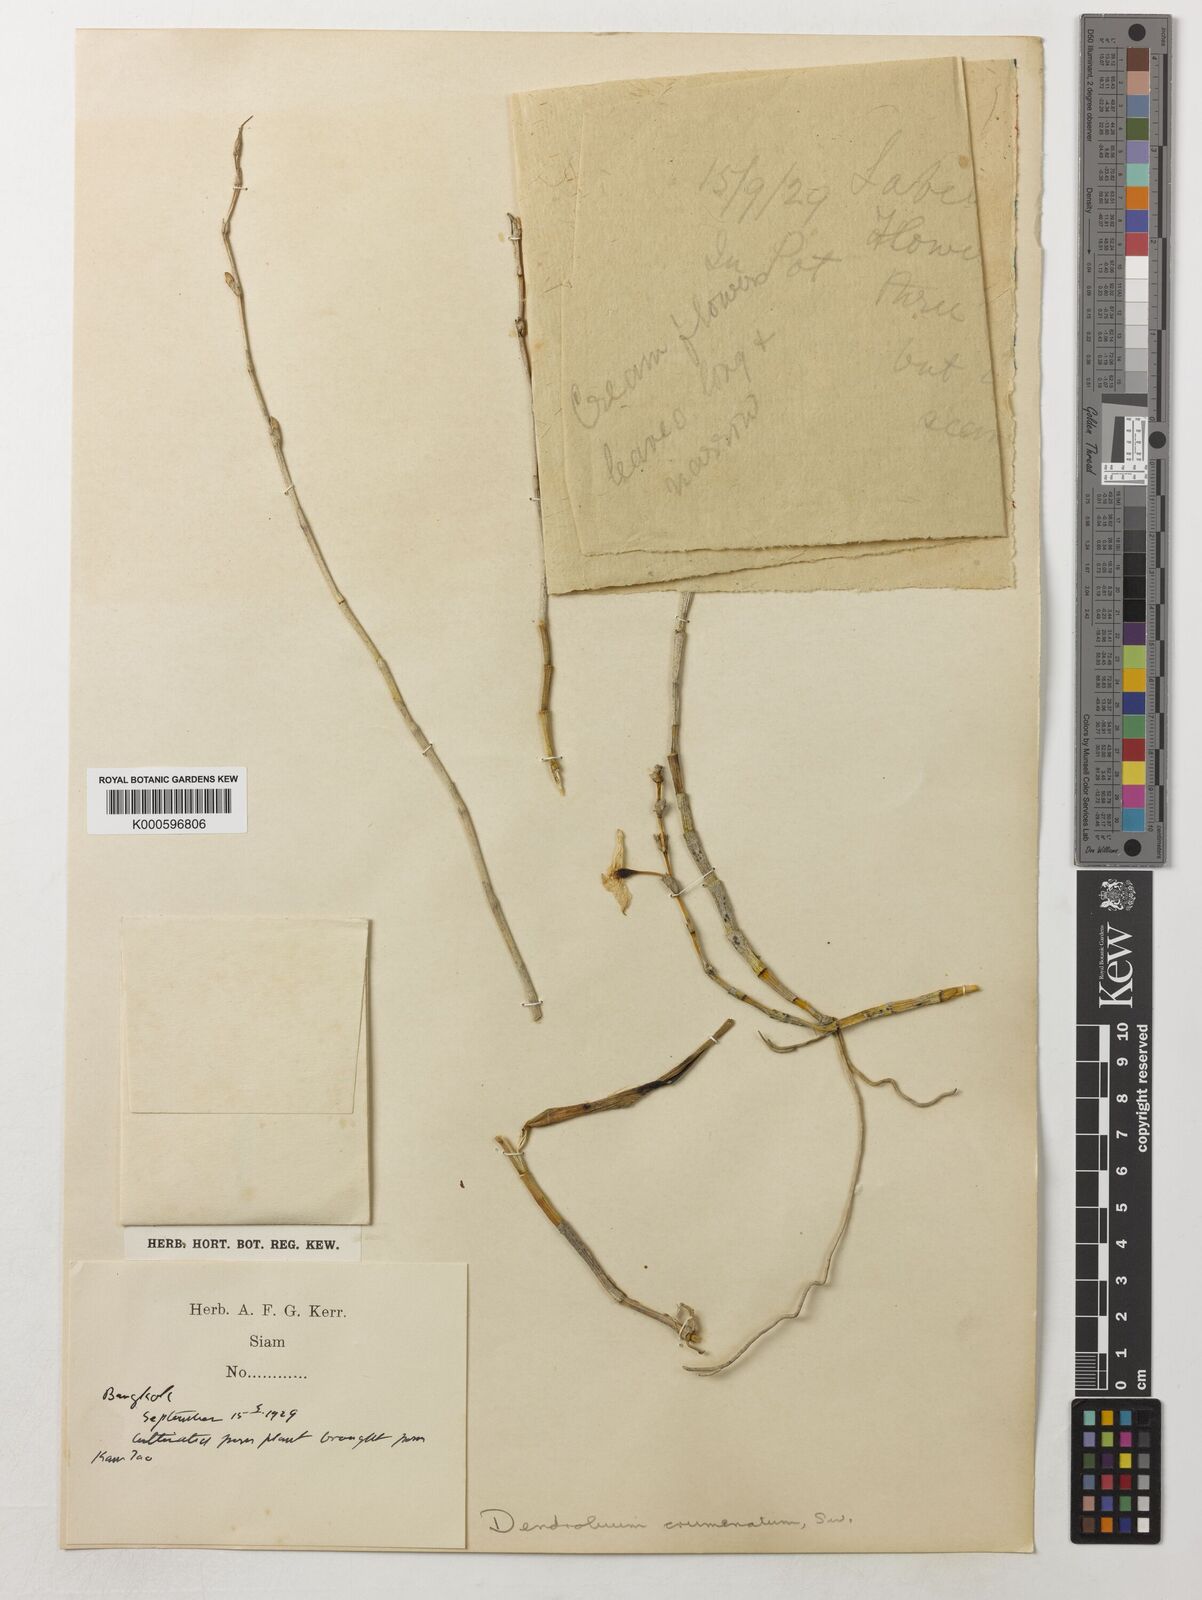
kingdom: Plantae
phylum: Tracheophyta
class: Liliopsida
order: Asparagales
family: Orchidaceae
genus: Dendrobium
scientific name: Dendrobium crumenatum
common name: Orchid
